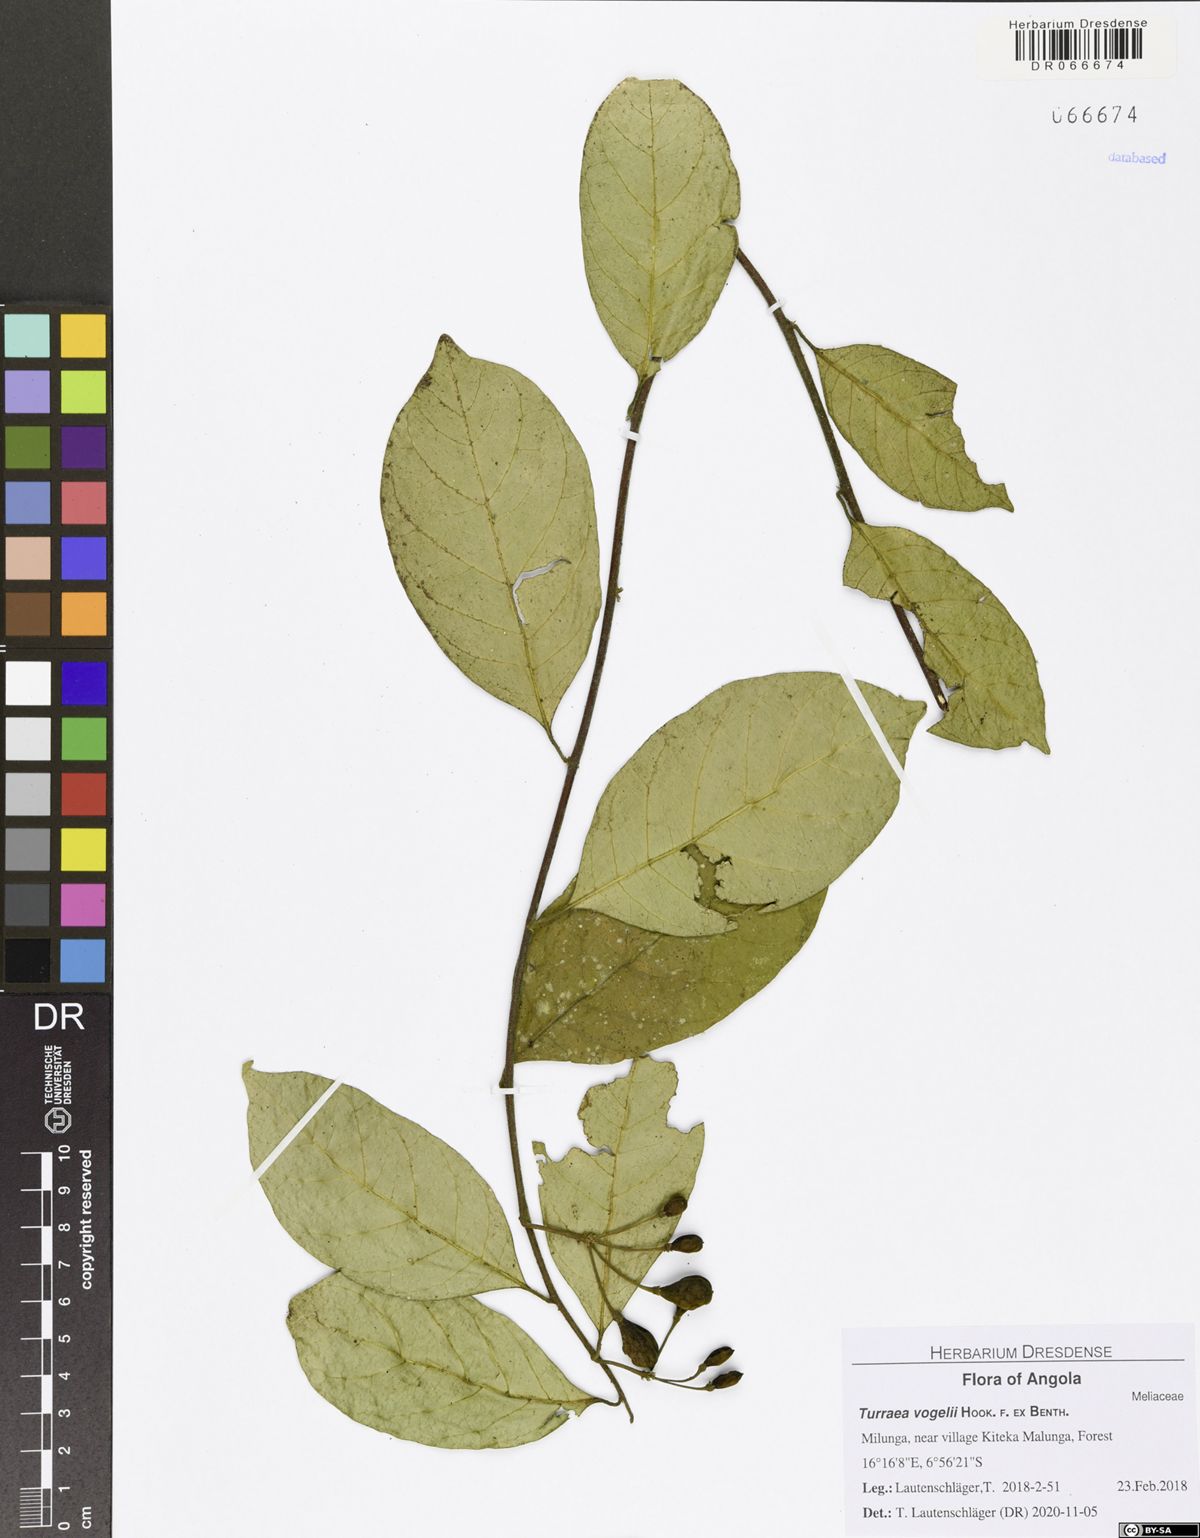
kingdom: Plantae
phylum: Tracheophyta
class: Magnoliopsida
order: Sapindales
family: Meliaceae
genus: Turraea
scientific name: Turraea vogelii
